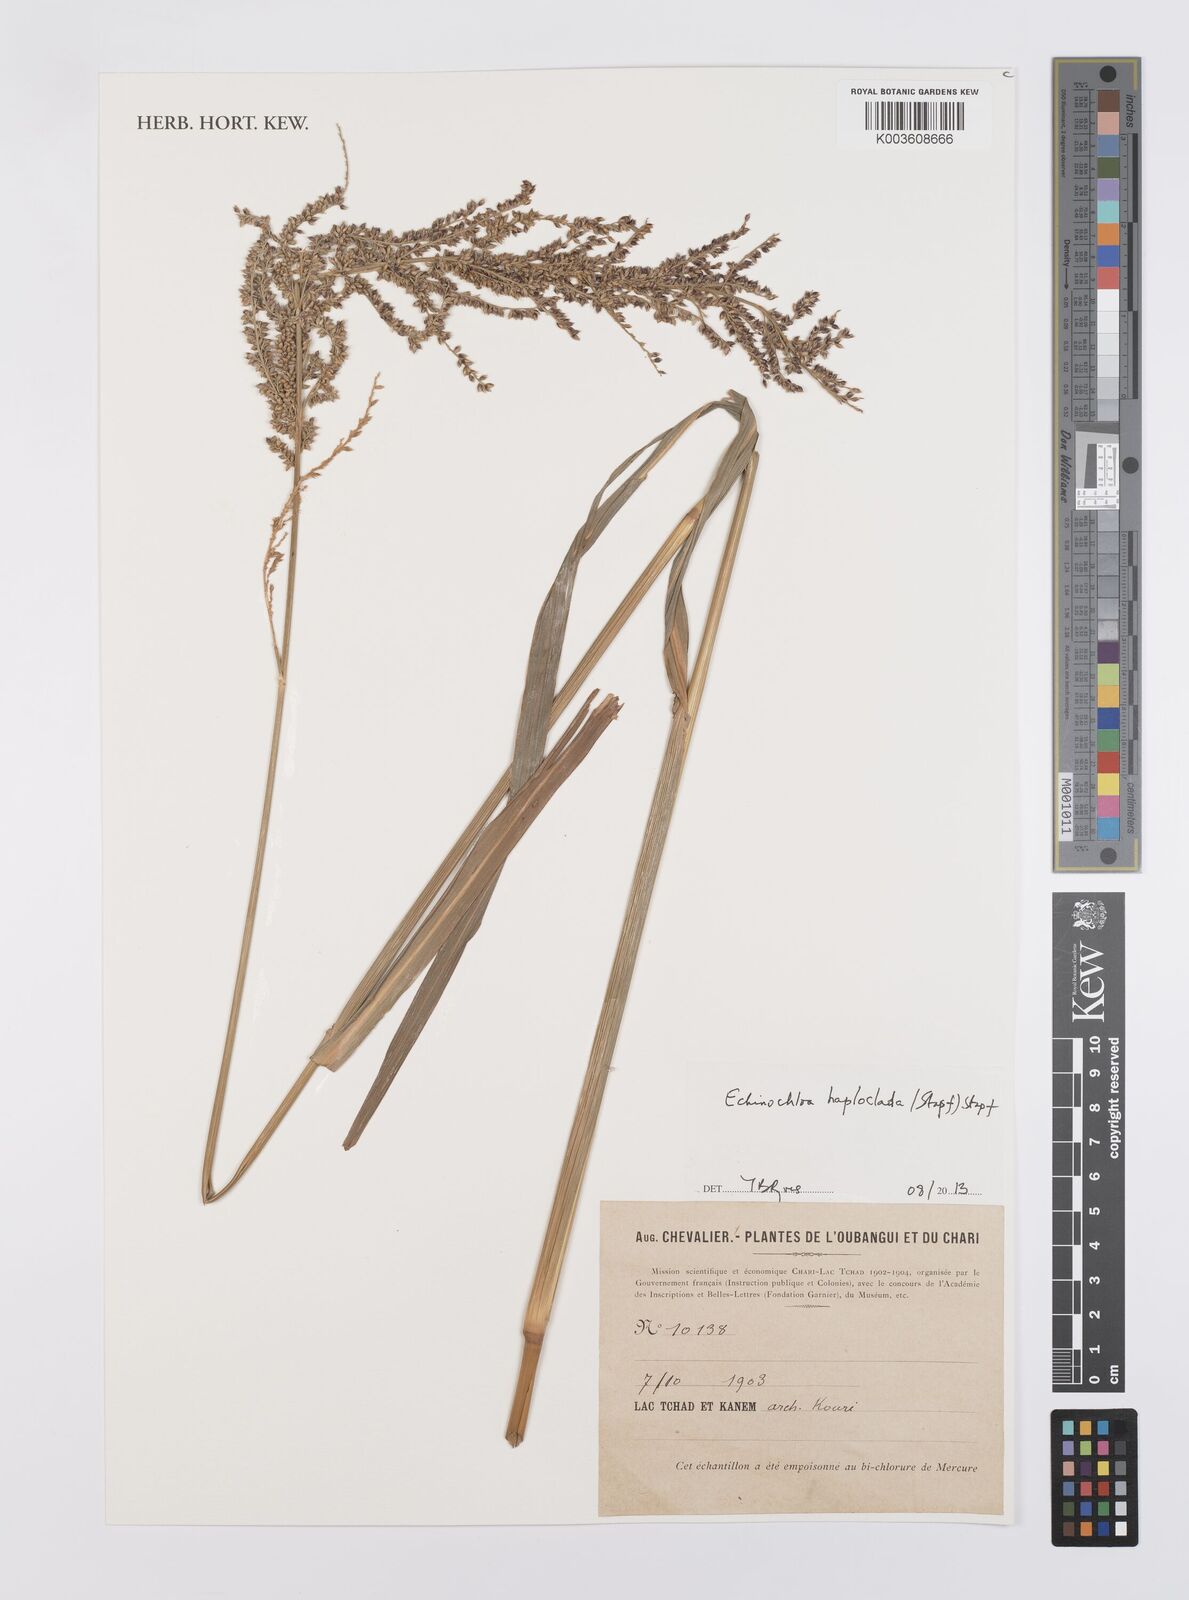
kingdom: Plantae
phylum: Tracheophyta
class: Liliopsida
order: Poales
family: Poaceae
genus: Echinochloa
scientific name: Echinochloa haploclada
